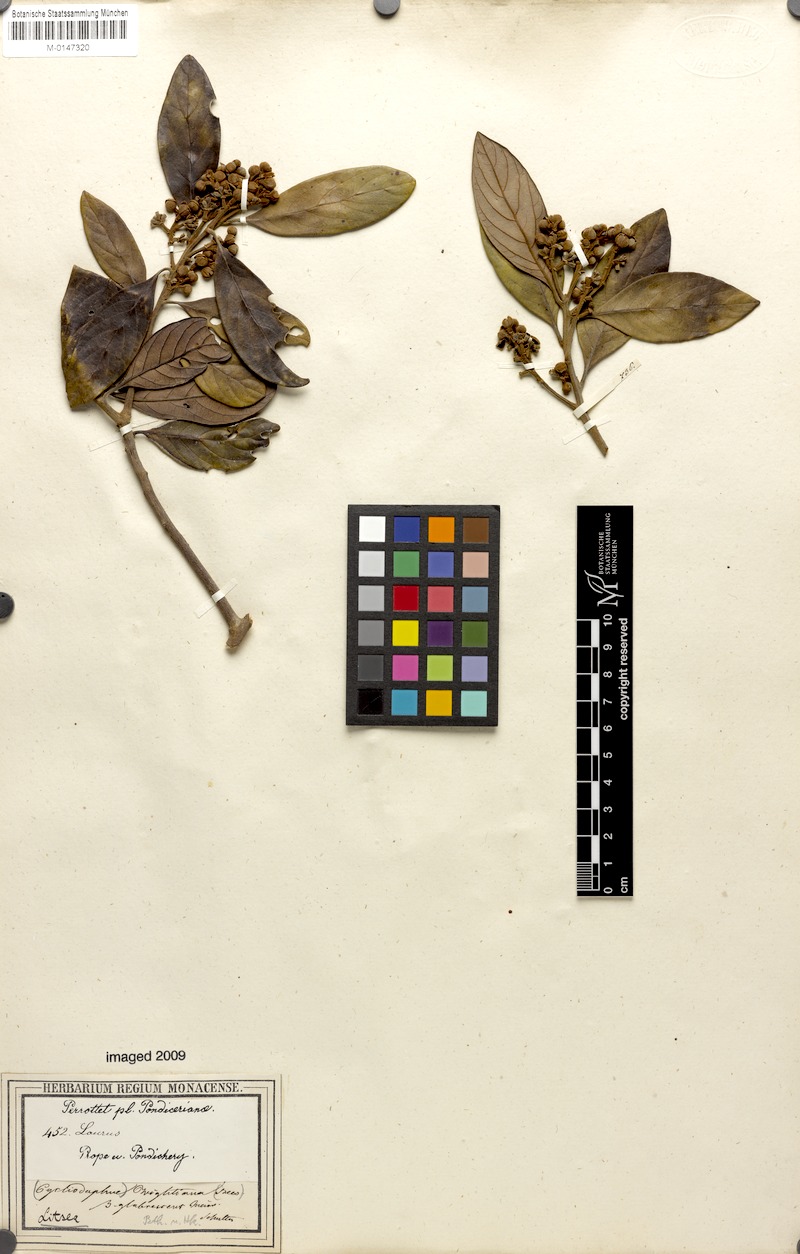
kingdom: Plantae
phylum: Tracheophyta
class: Magnoliopsida
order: Laurales
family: Lauraceae
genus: Litsea
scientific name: Litsea wightiana
